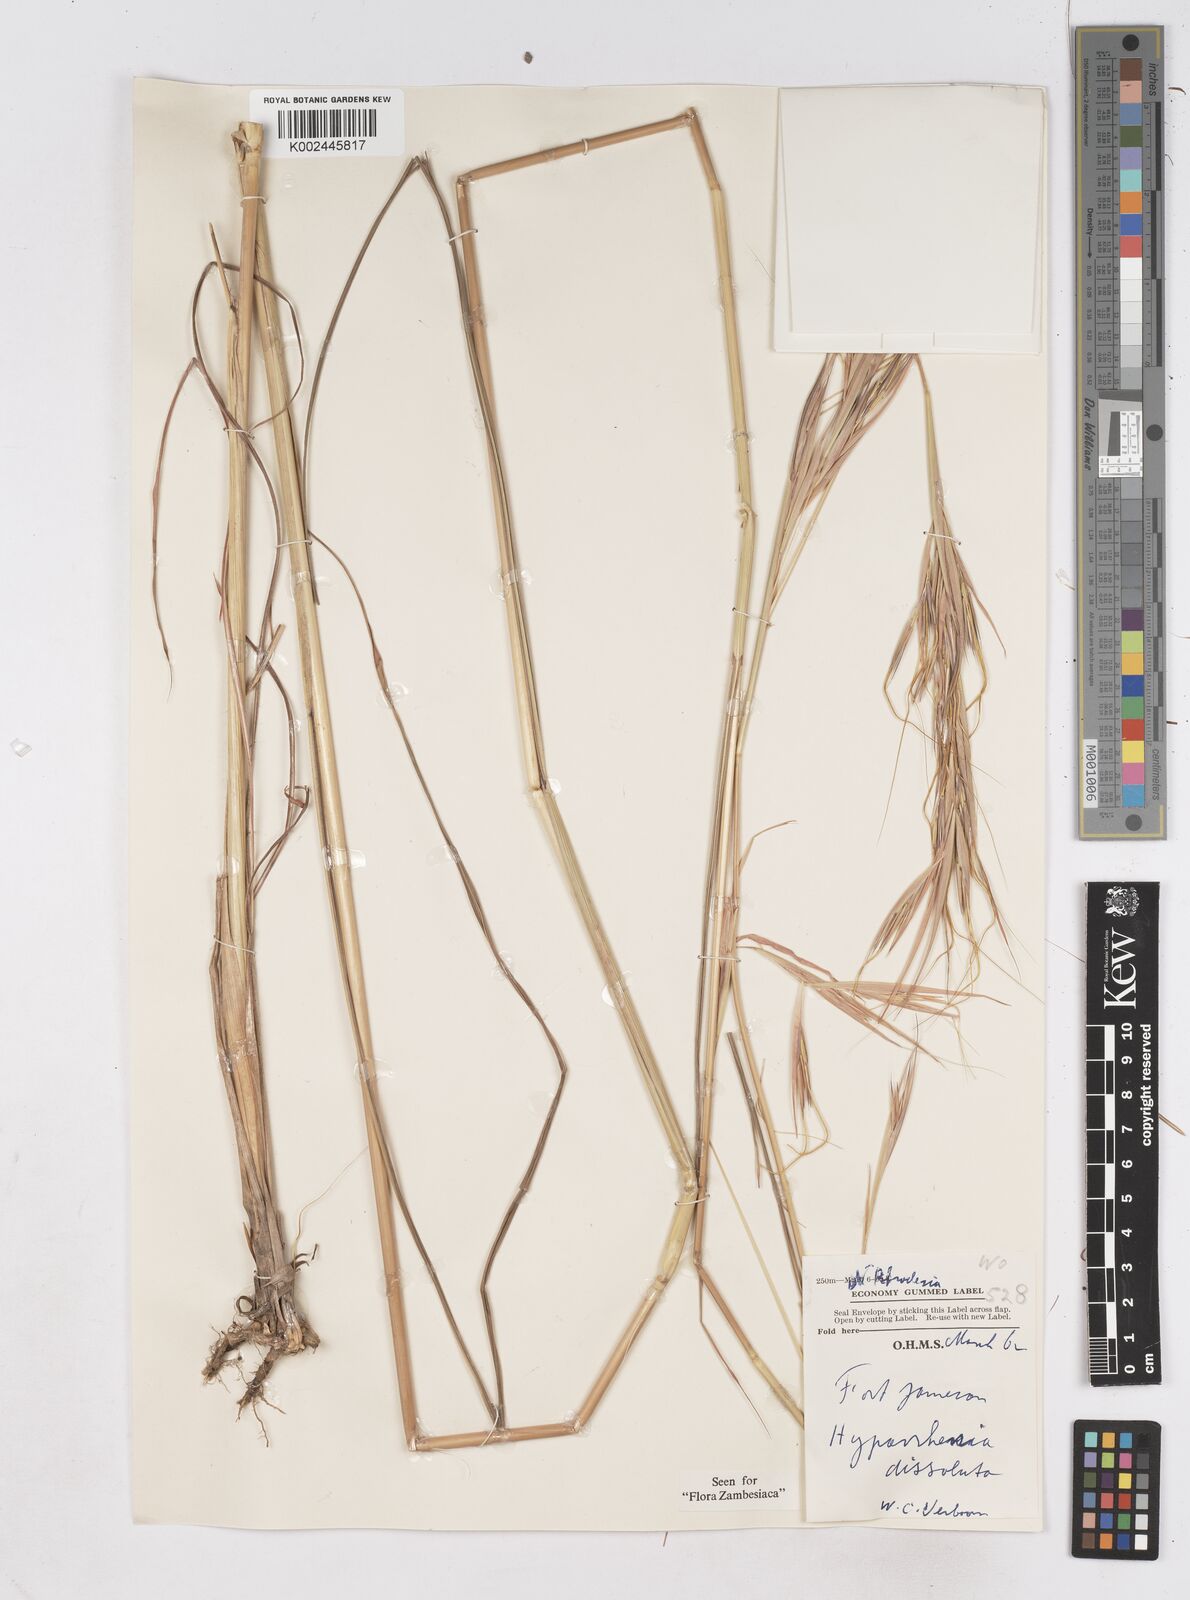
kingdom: Plantae
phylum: Tracheophyta
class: Liliopsida
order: Poales
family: Poaceae
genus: Hyperthelia
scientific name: Hyperthelia dissoluta
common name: Yellow thatching grass
